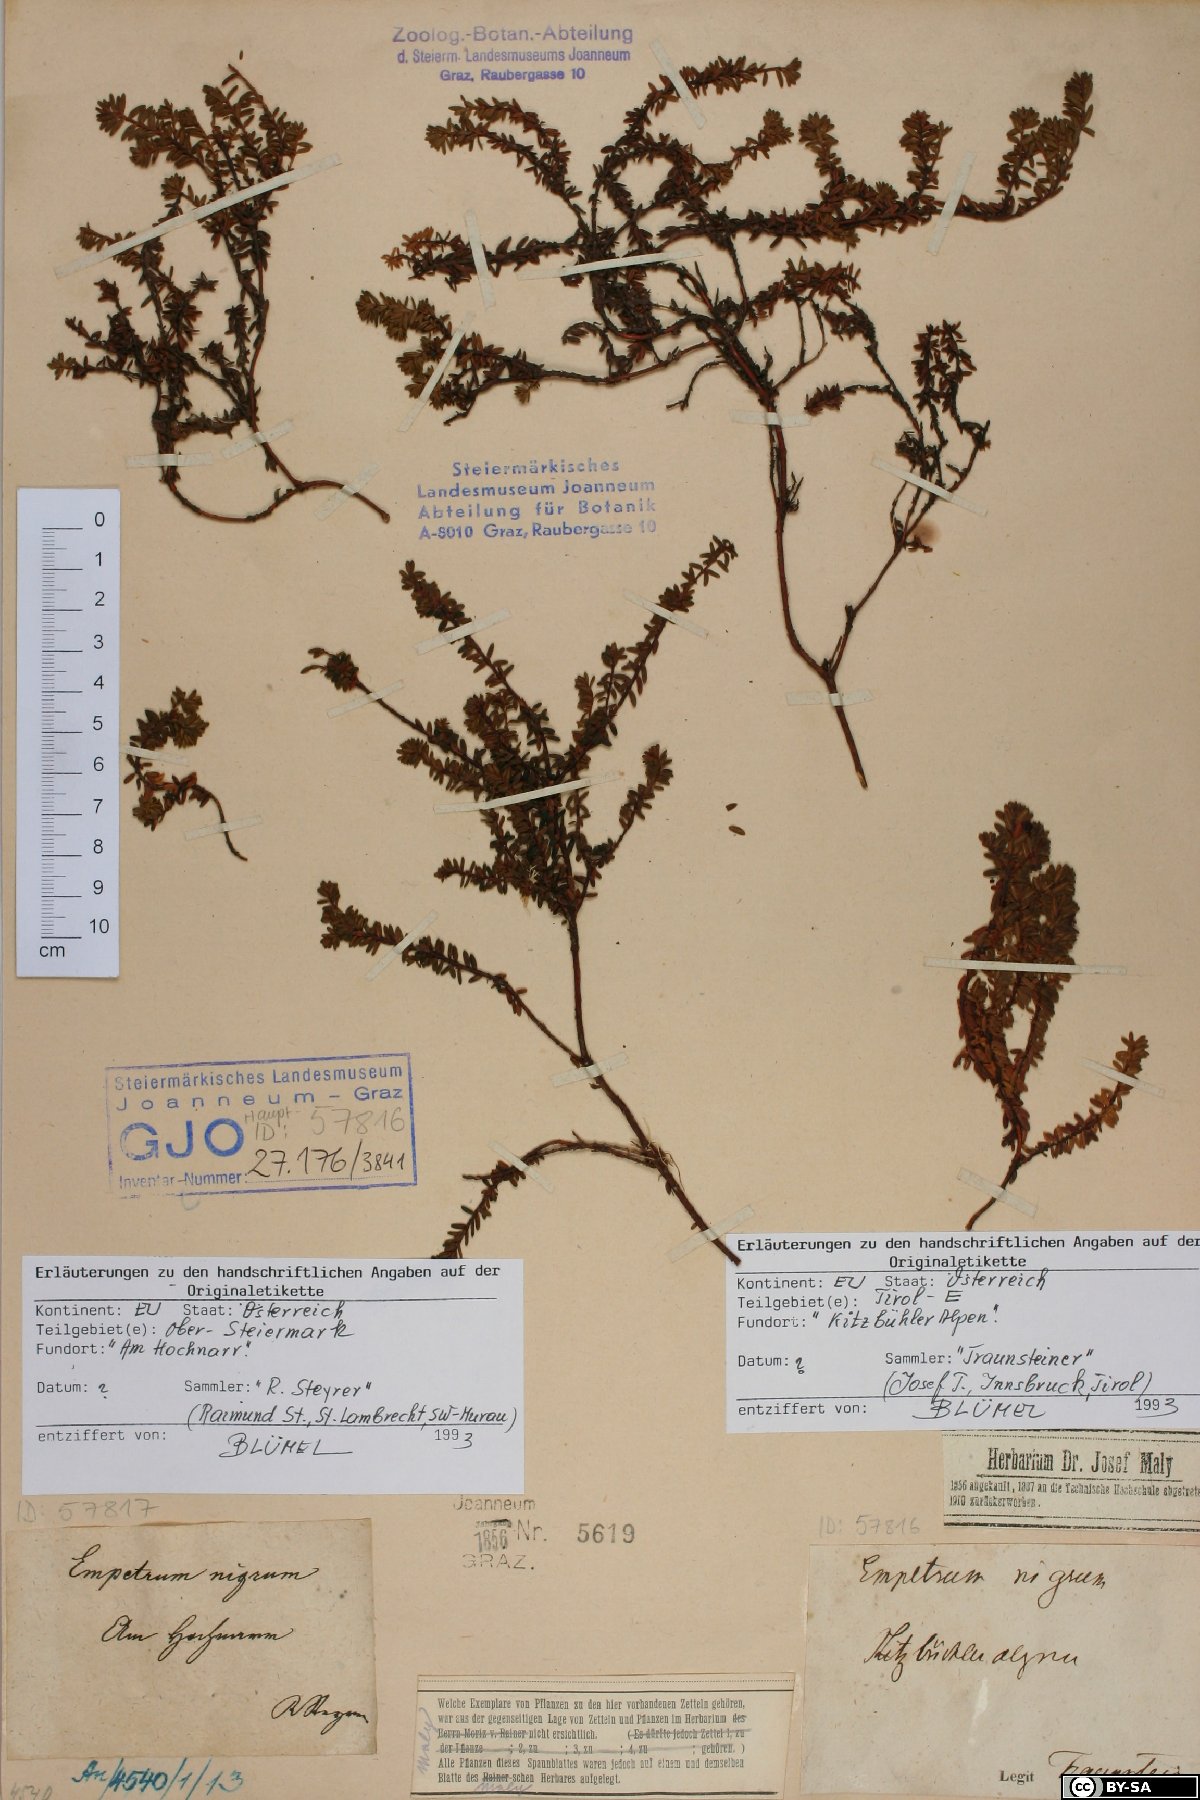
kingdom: Plantae
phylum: Tracheophyta
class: Magnoliopsida
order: Ericales
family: Ericaceae
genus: Empetrum
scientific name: Empetrum hermaphroditum
